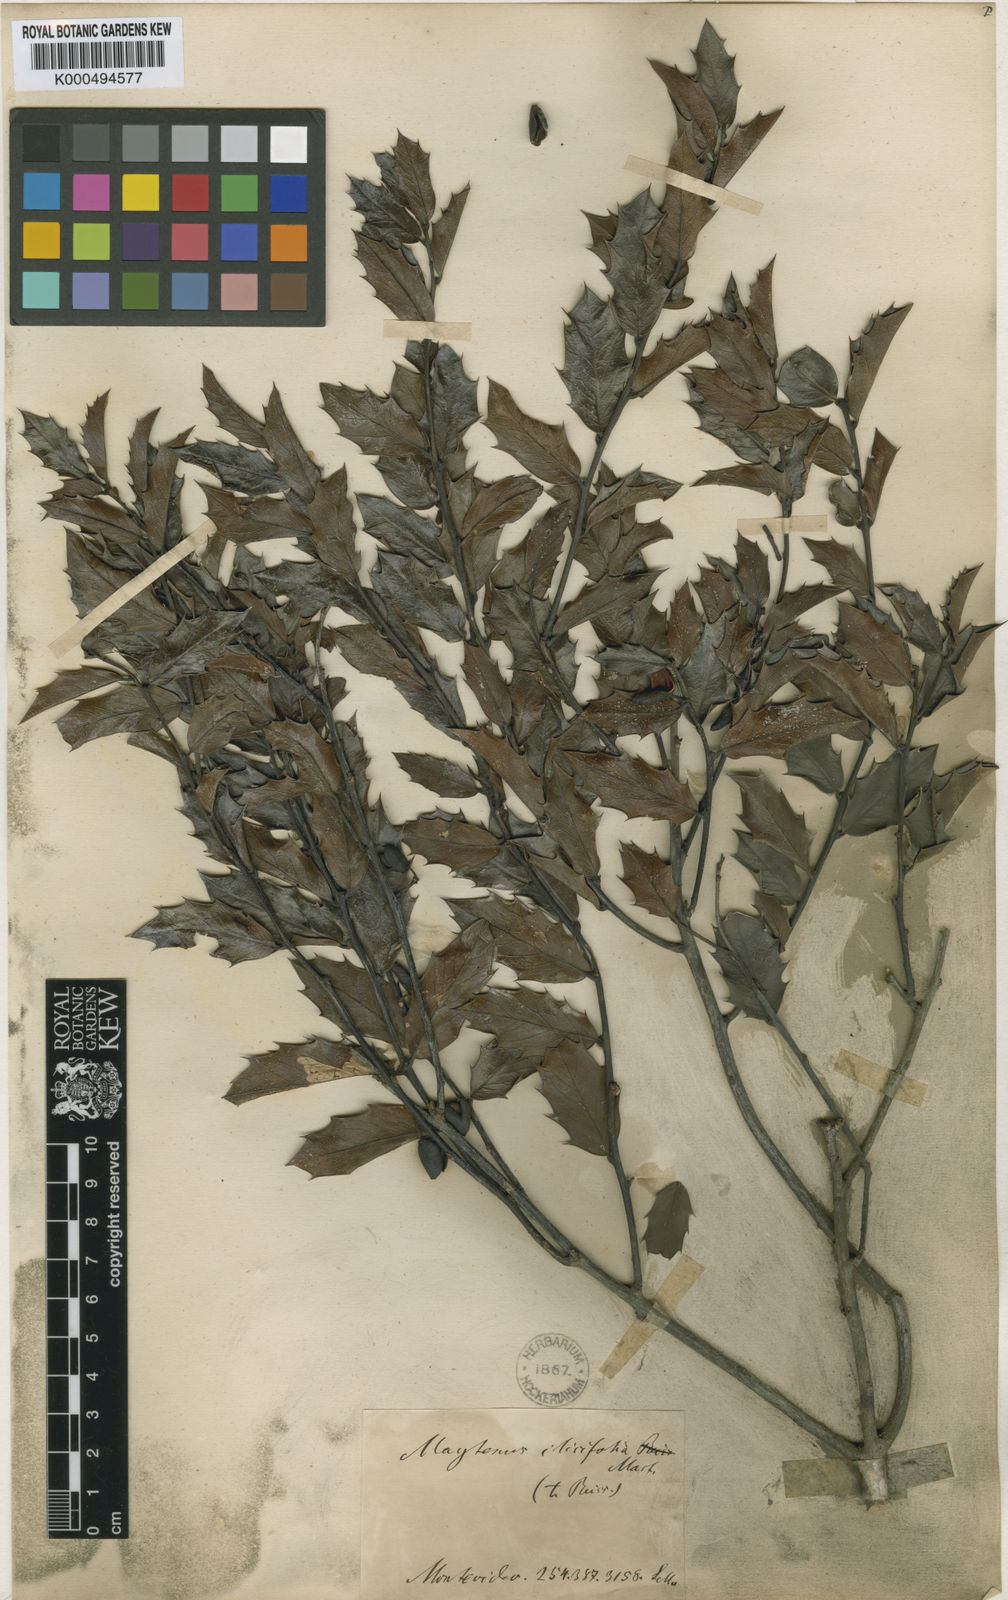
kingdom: Plantae
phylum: Tracheophyta
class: Magnoliopsida
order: Celastrales
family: Celastraceae
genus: Monteverdia
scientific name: Monteverdia ilicifolia
